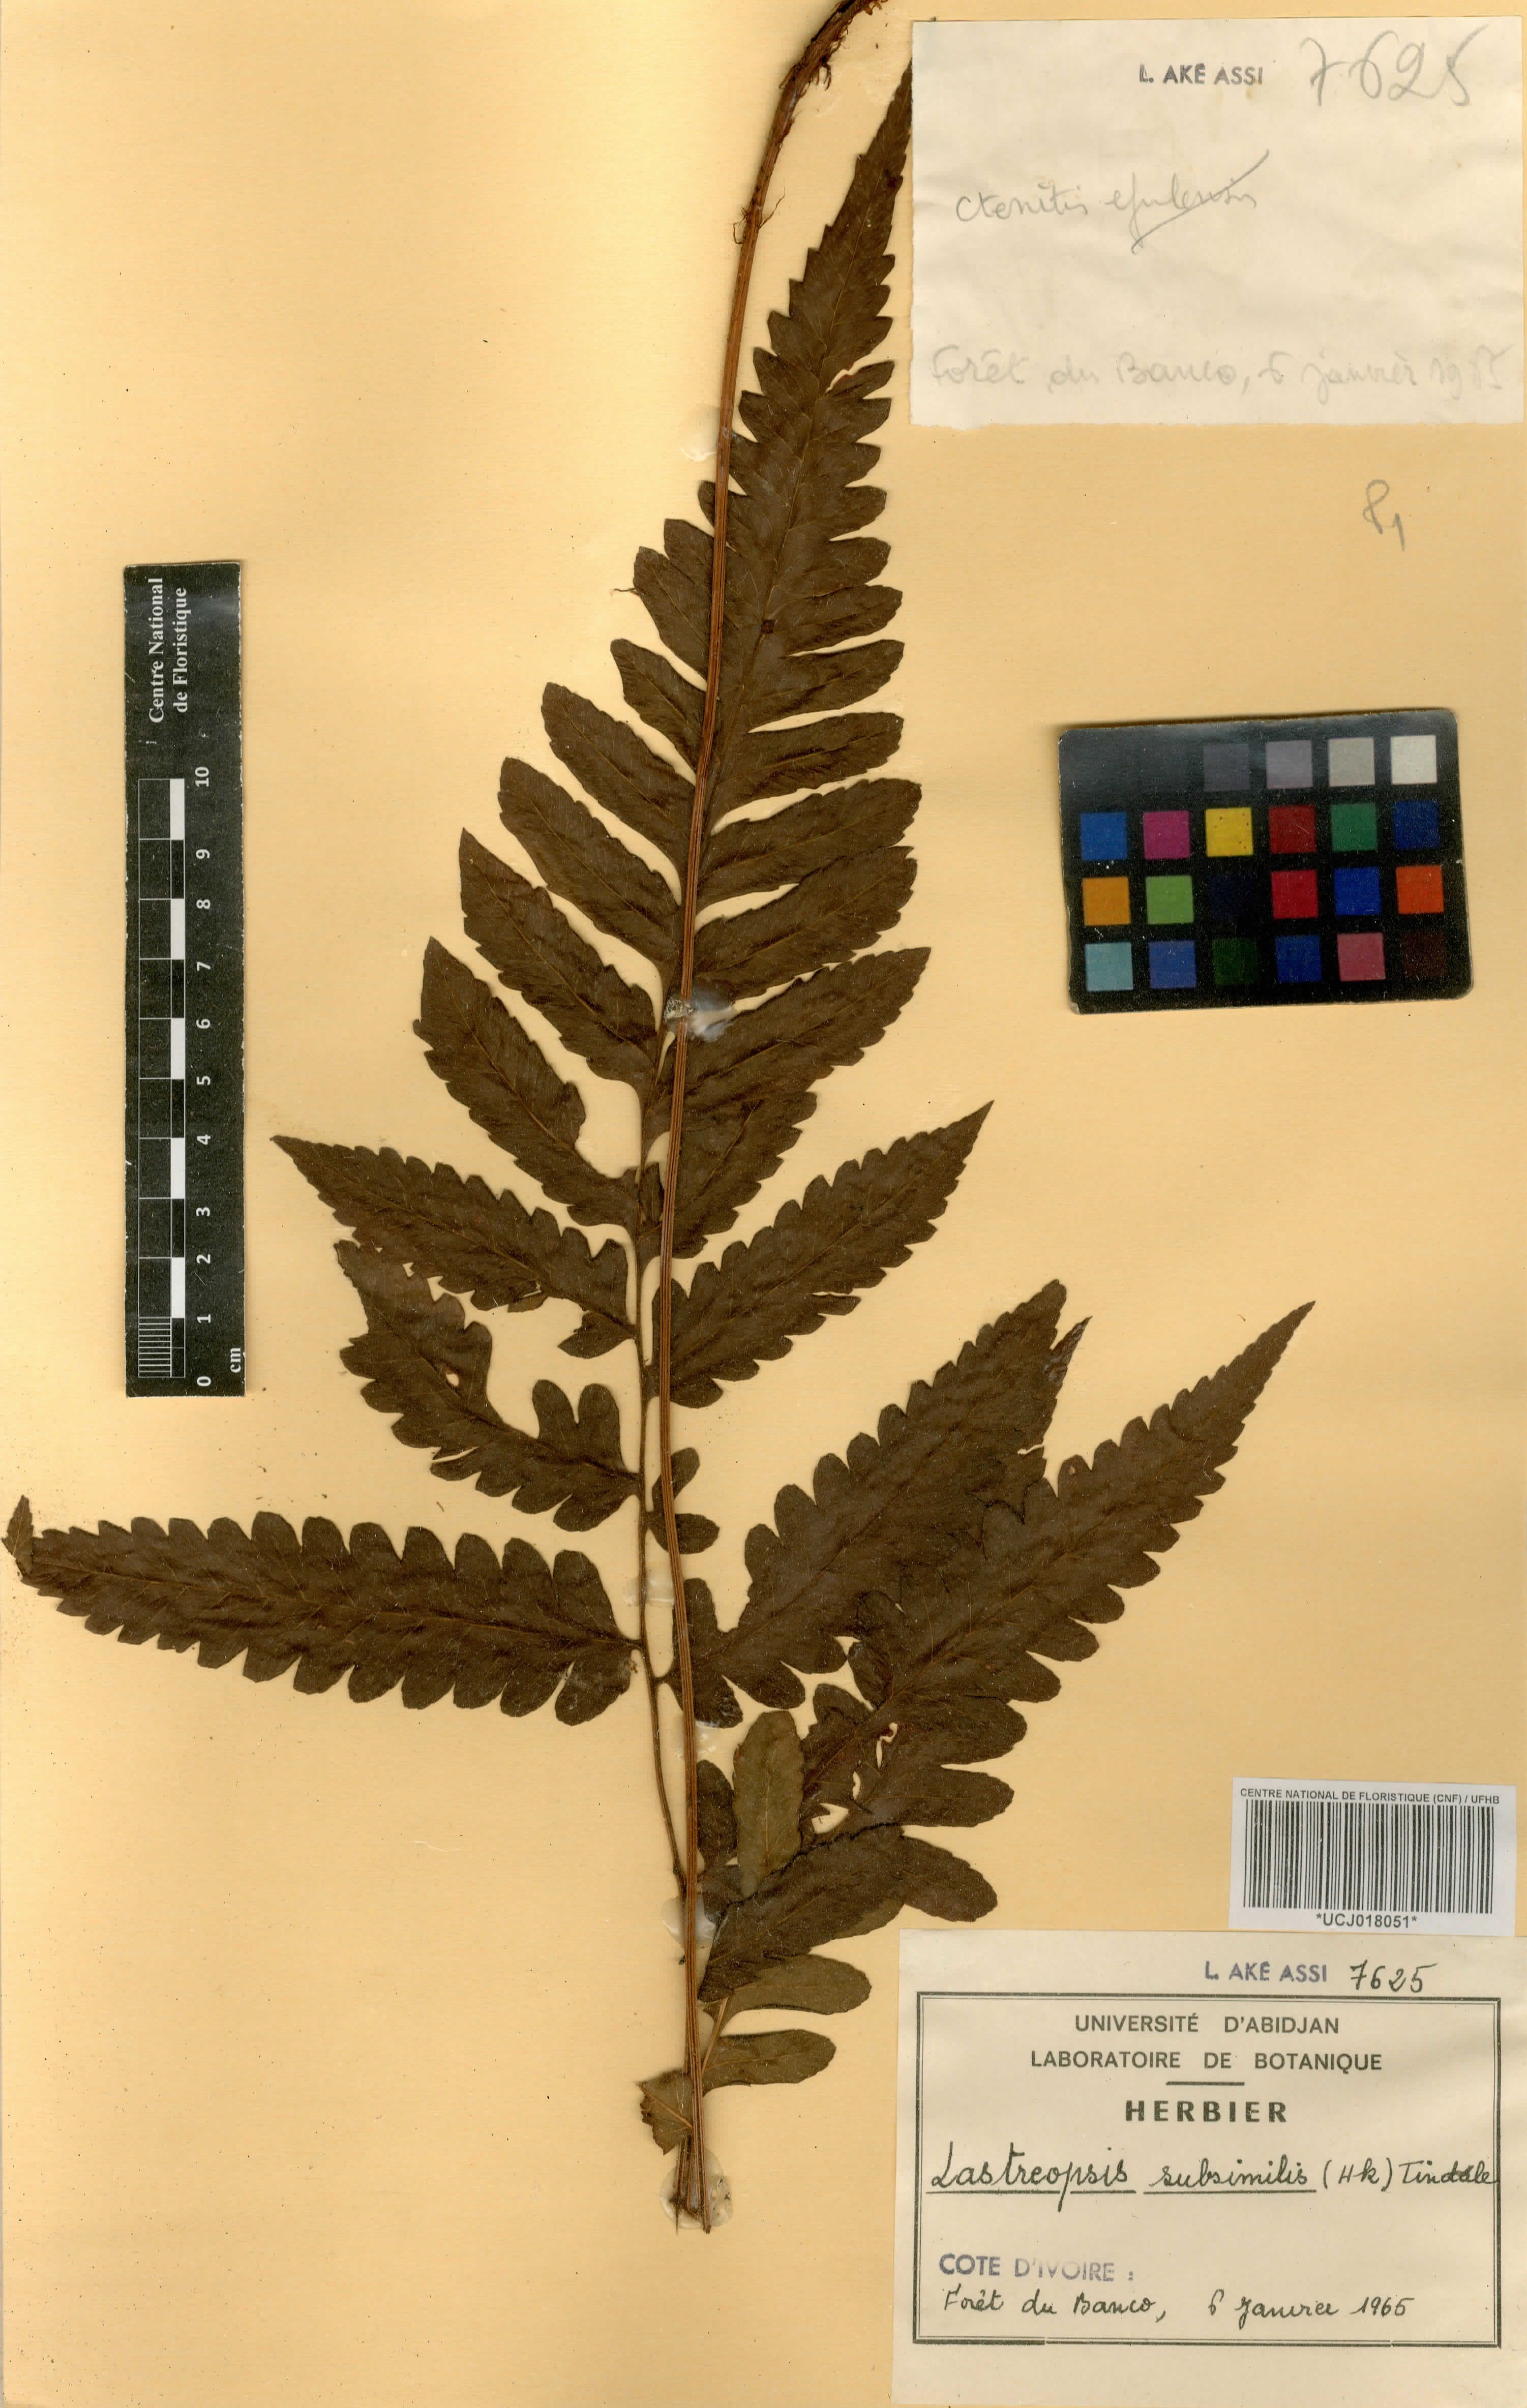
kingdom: Plantae
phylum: Tracheophyta
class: Polypodiopsida
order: Polypodiales
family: Dryopteridaceae
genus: Parapolystichum
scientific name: Parapolystichum subsimile
